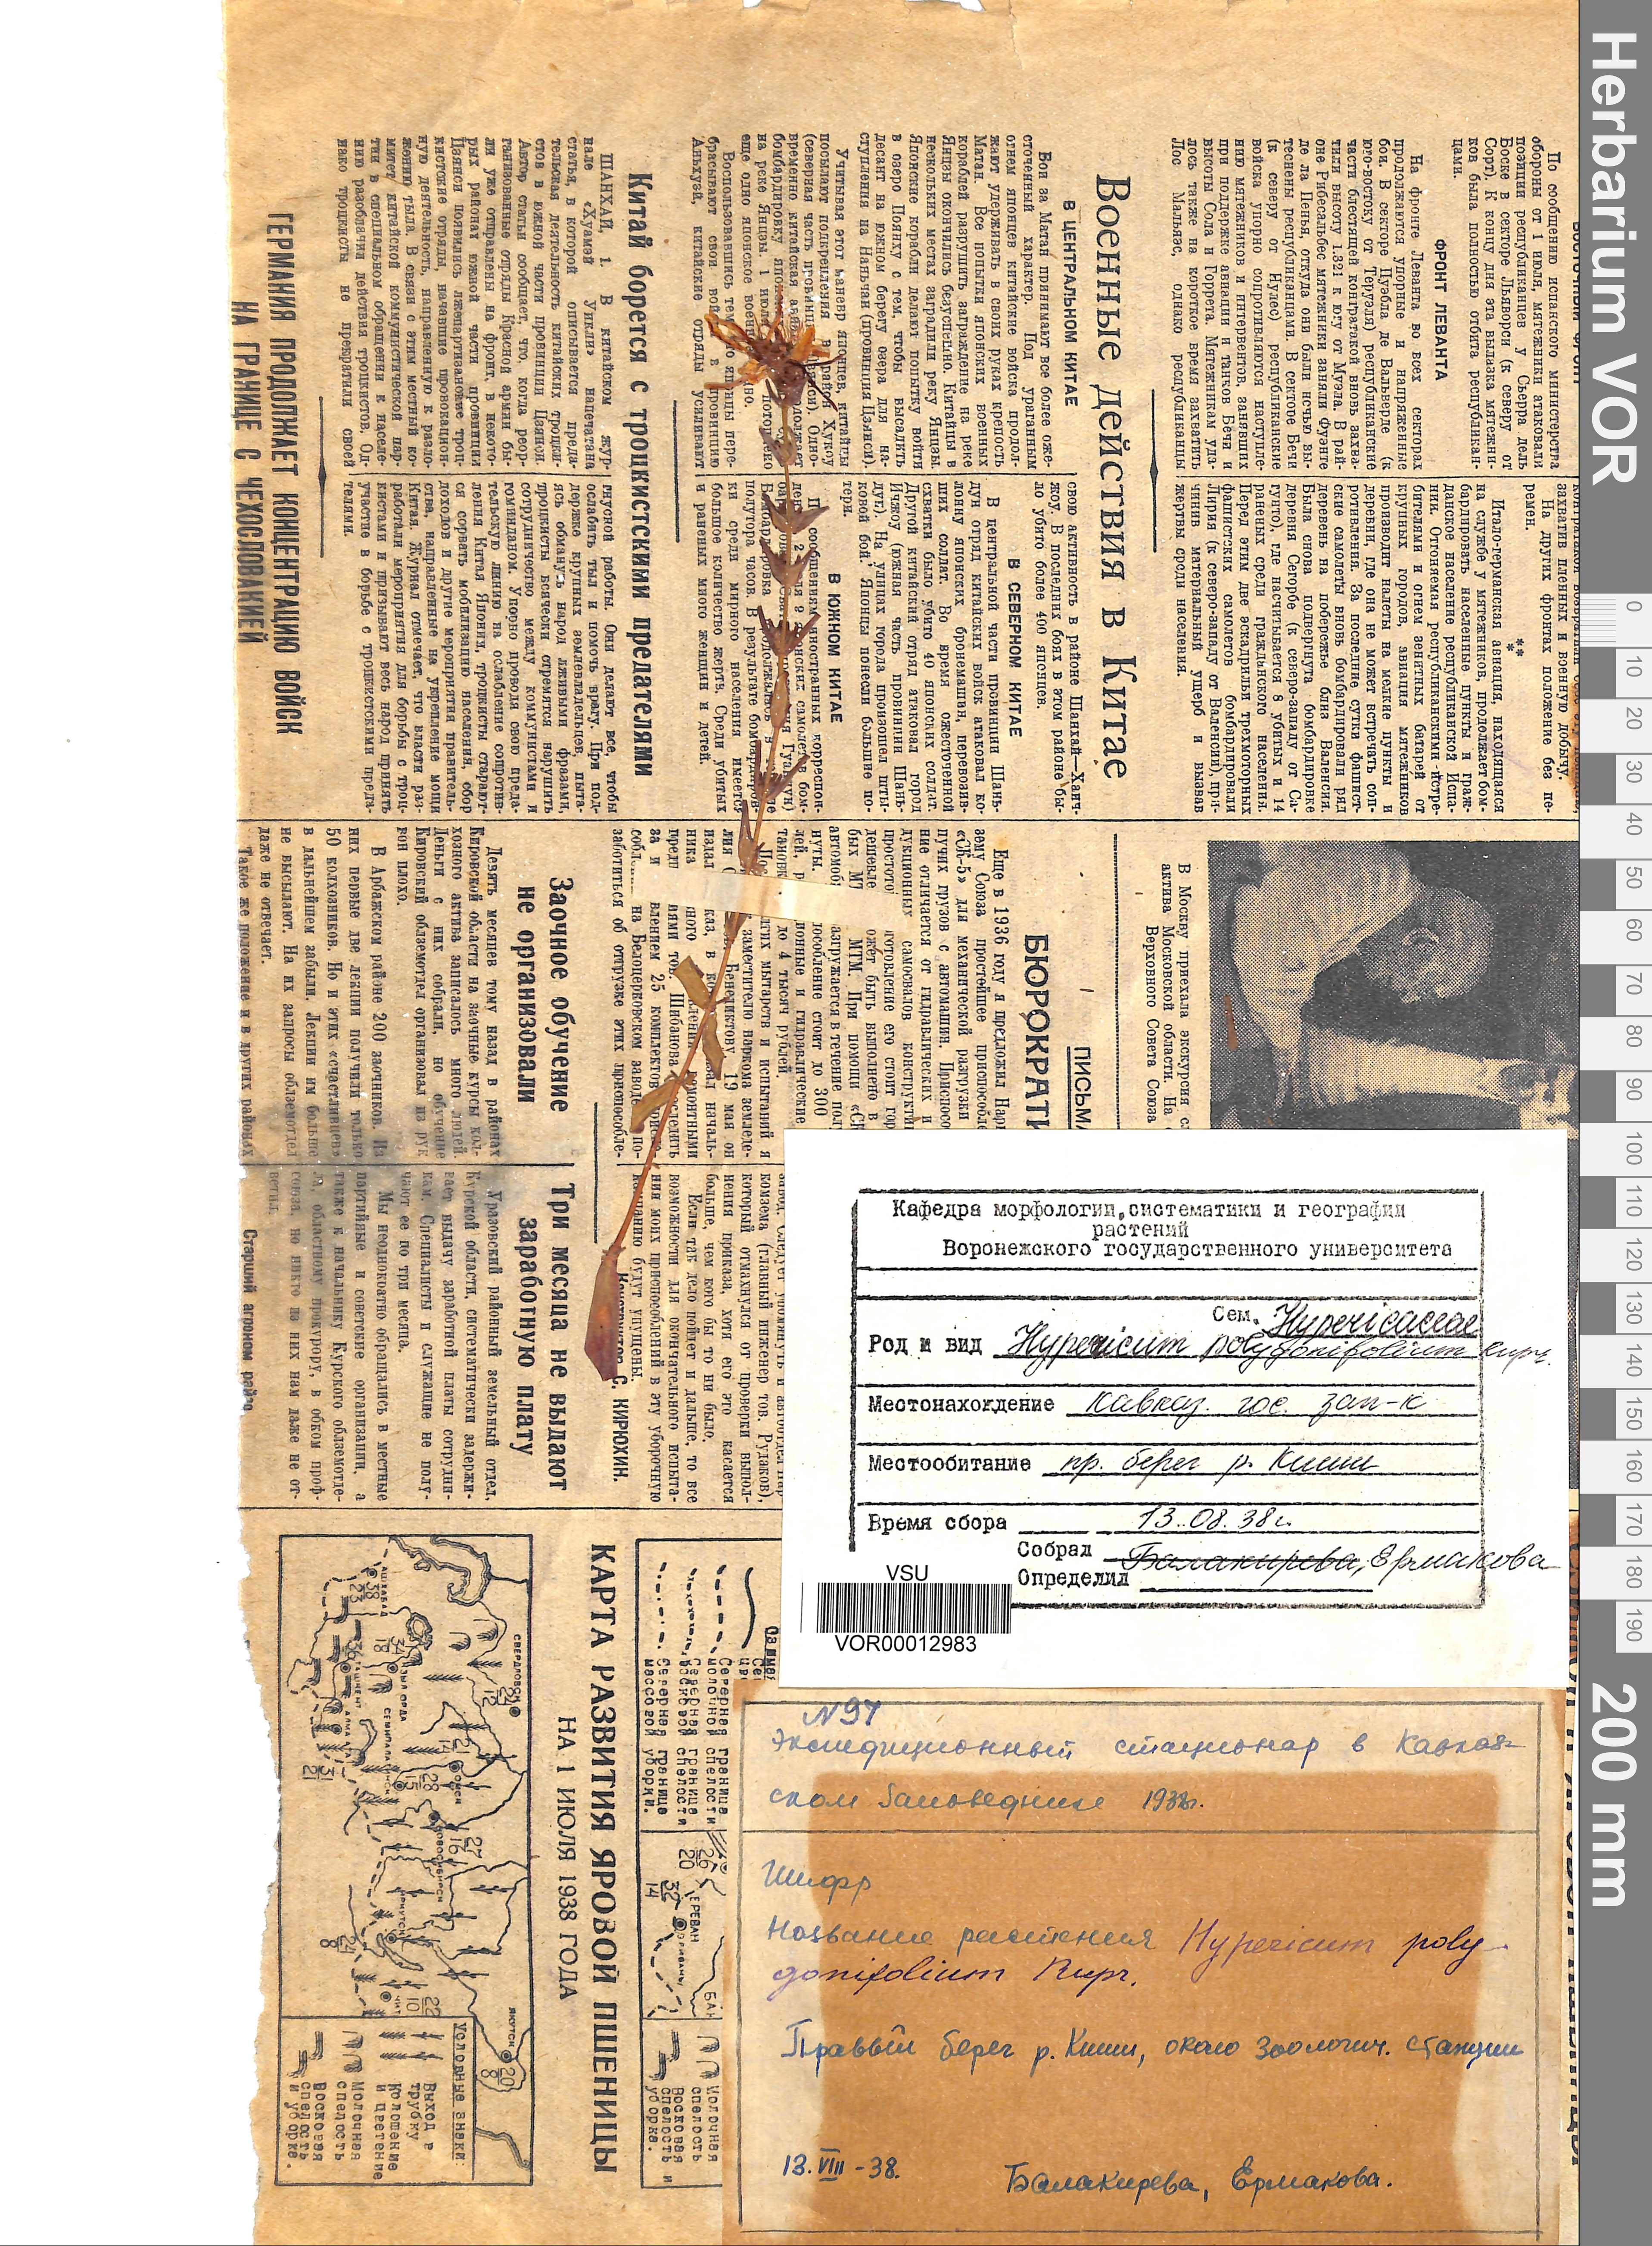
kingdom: Plantae
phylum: Tracheophyta
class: Magnoliopsida
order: Malpighiales
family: Hypericaceae
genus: Hypericum
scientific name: Hypericum linarioides
